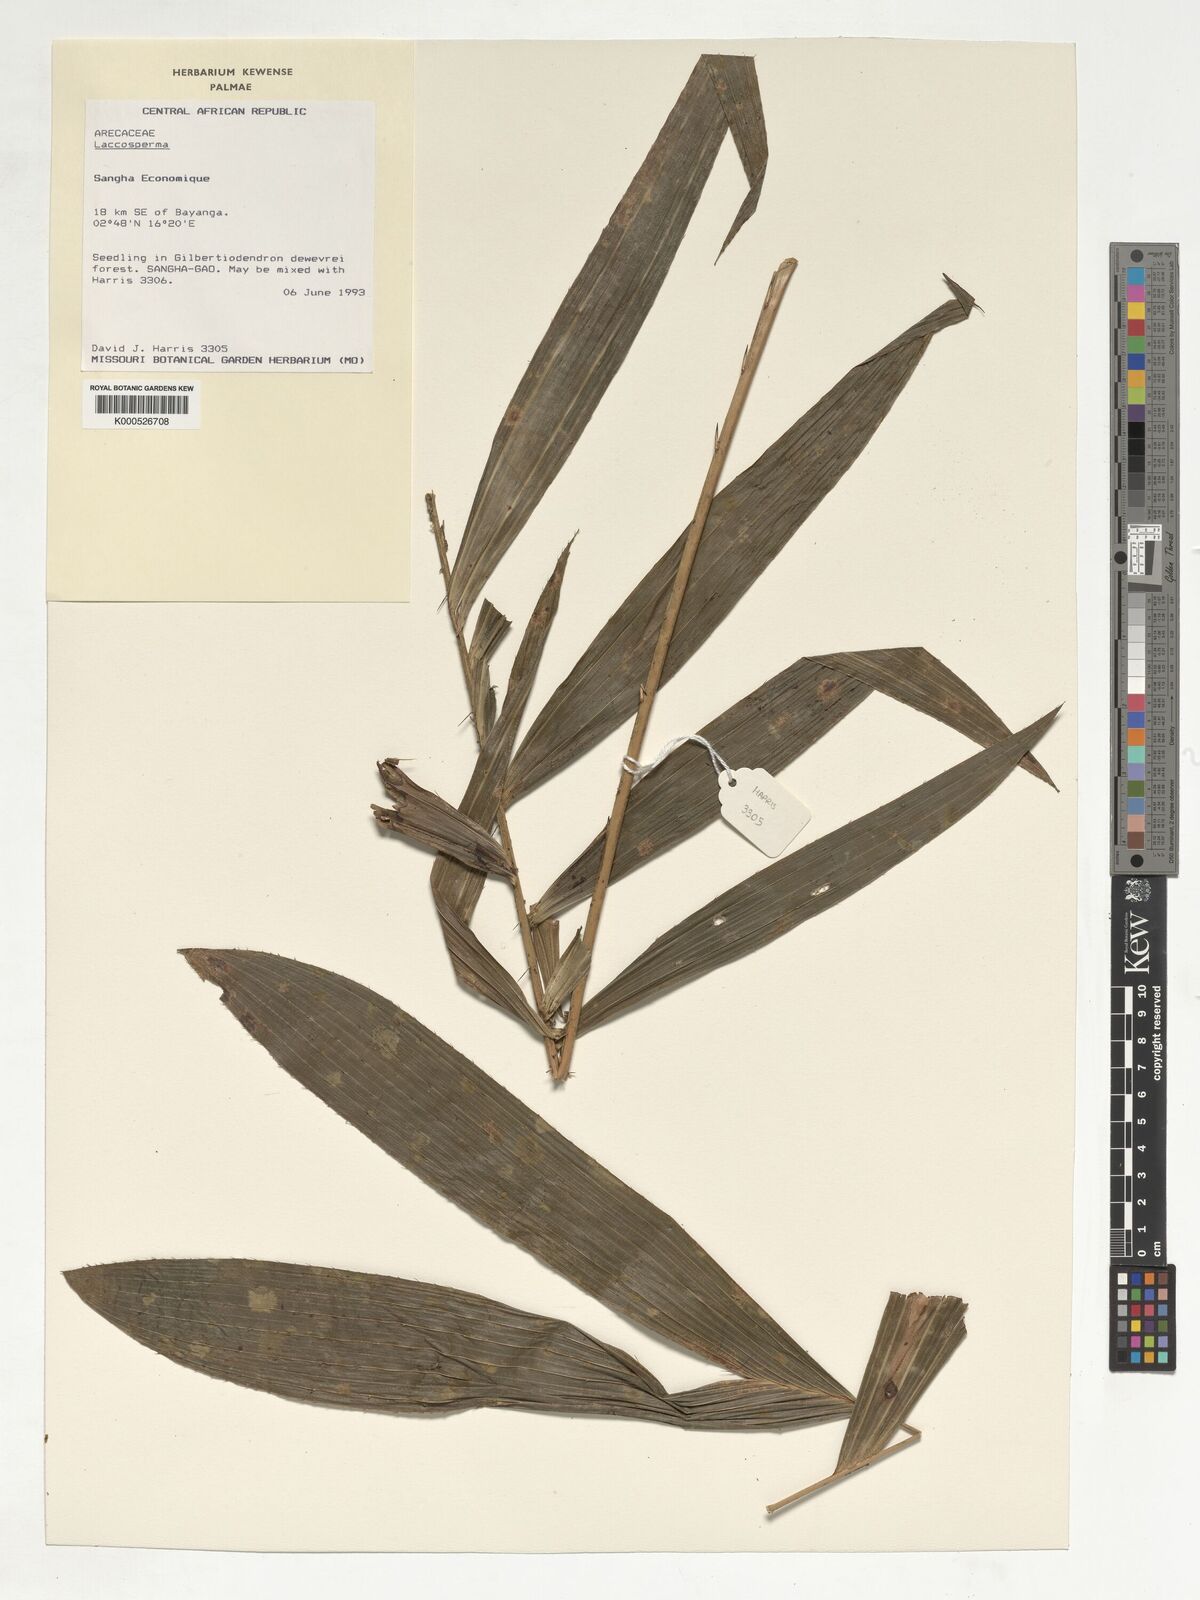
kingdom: Plantae
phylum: Tracheophyta
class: Liliopsida
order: Arecales
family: Arecaceae
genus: Laccosperma
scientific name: Laccosperma
